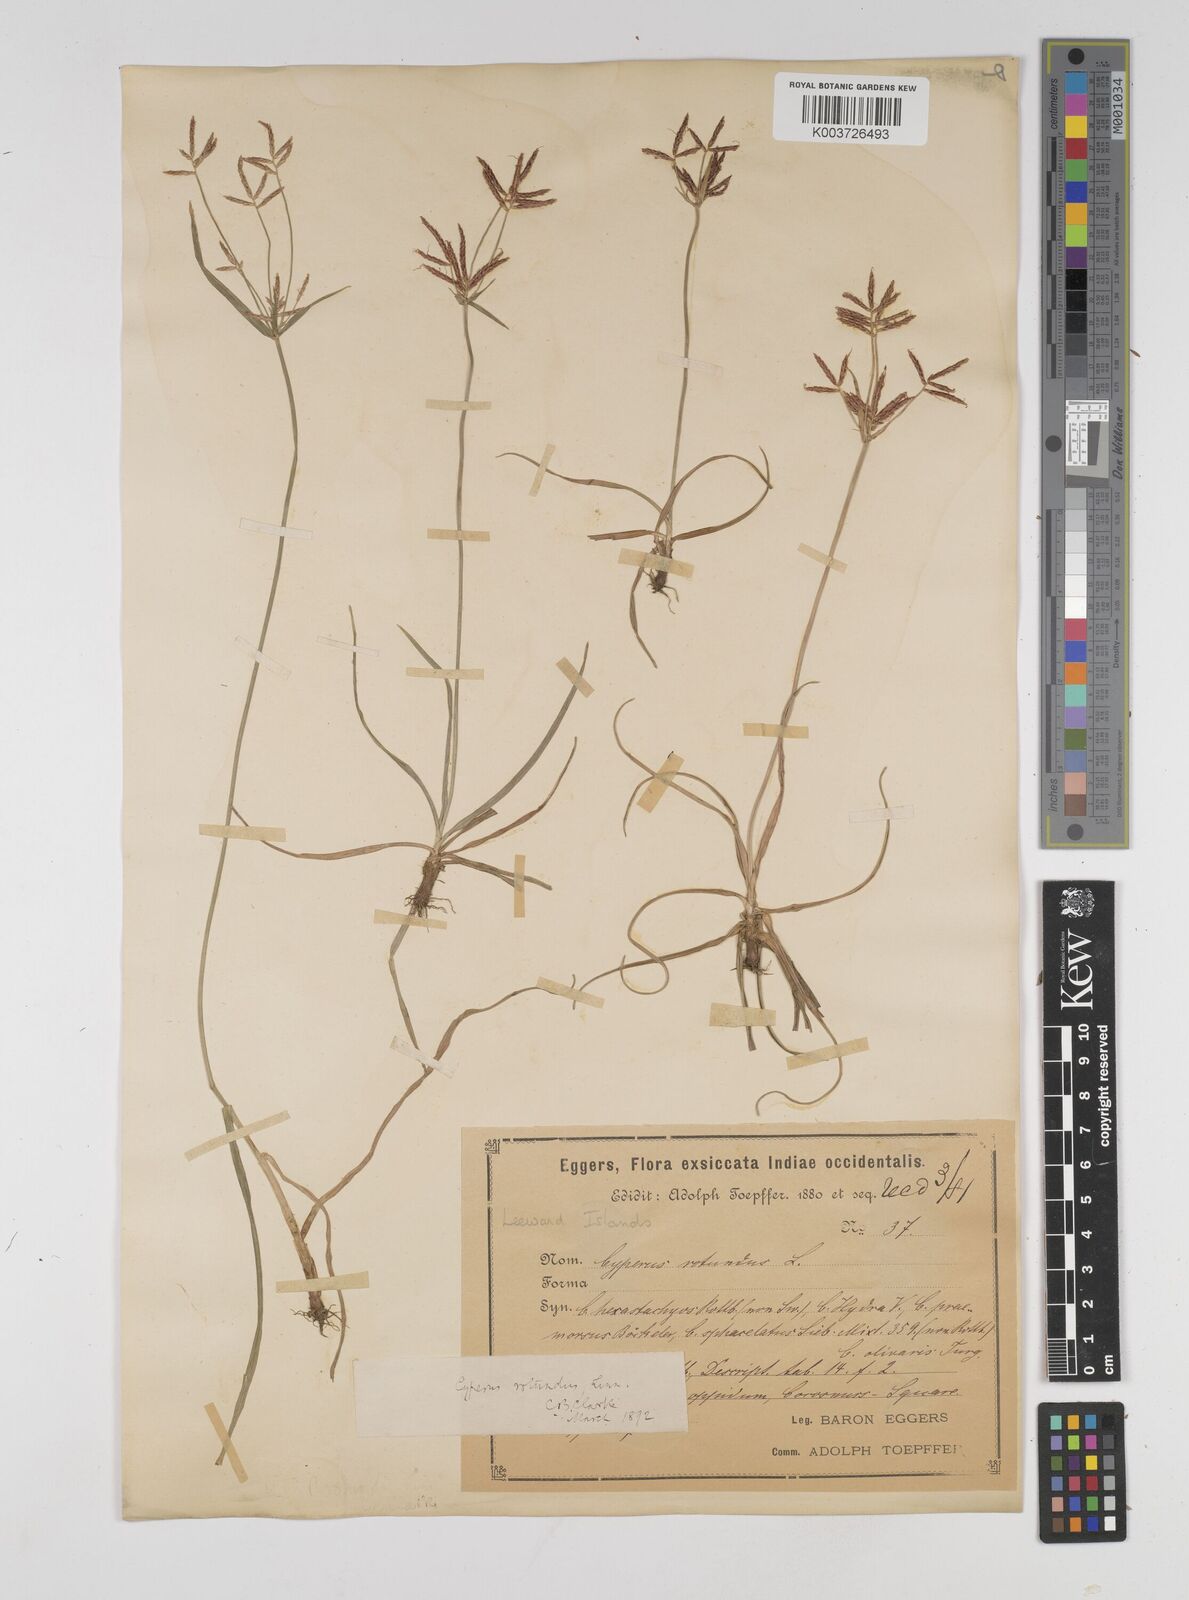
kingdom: Plantae
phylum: Tracheophyta
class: Liliopsida
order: Poales
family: Cyperaceae
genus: Cyperus
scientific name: Cyperus rotundus
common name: Nutgrass
